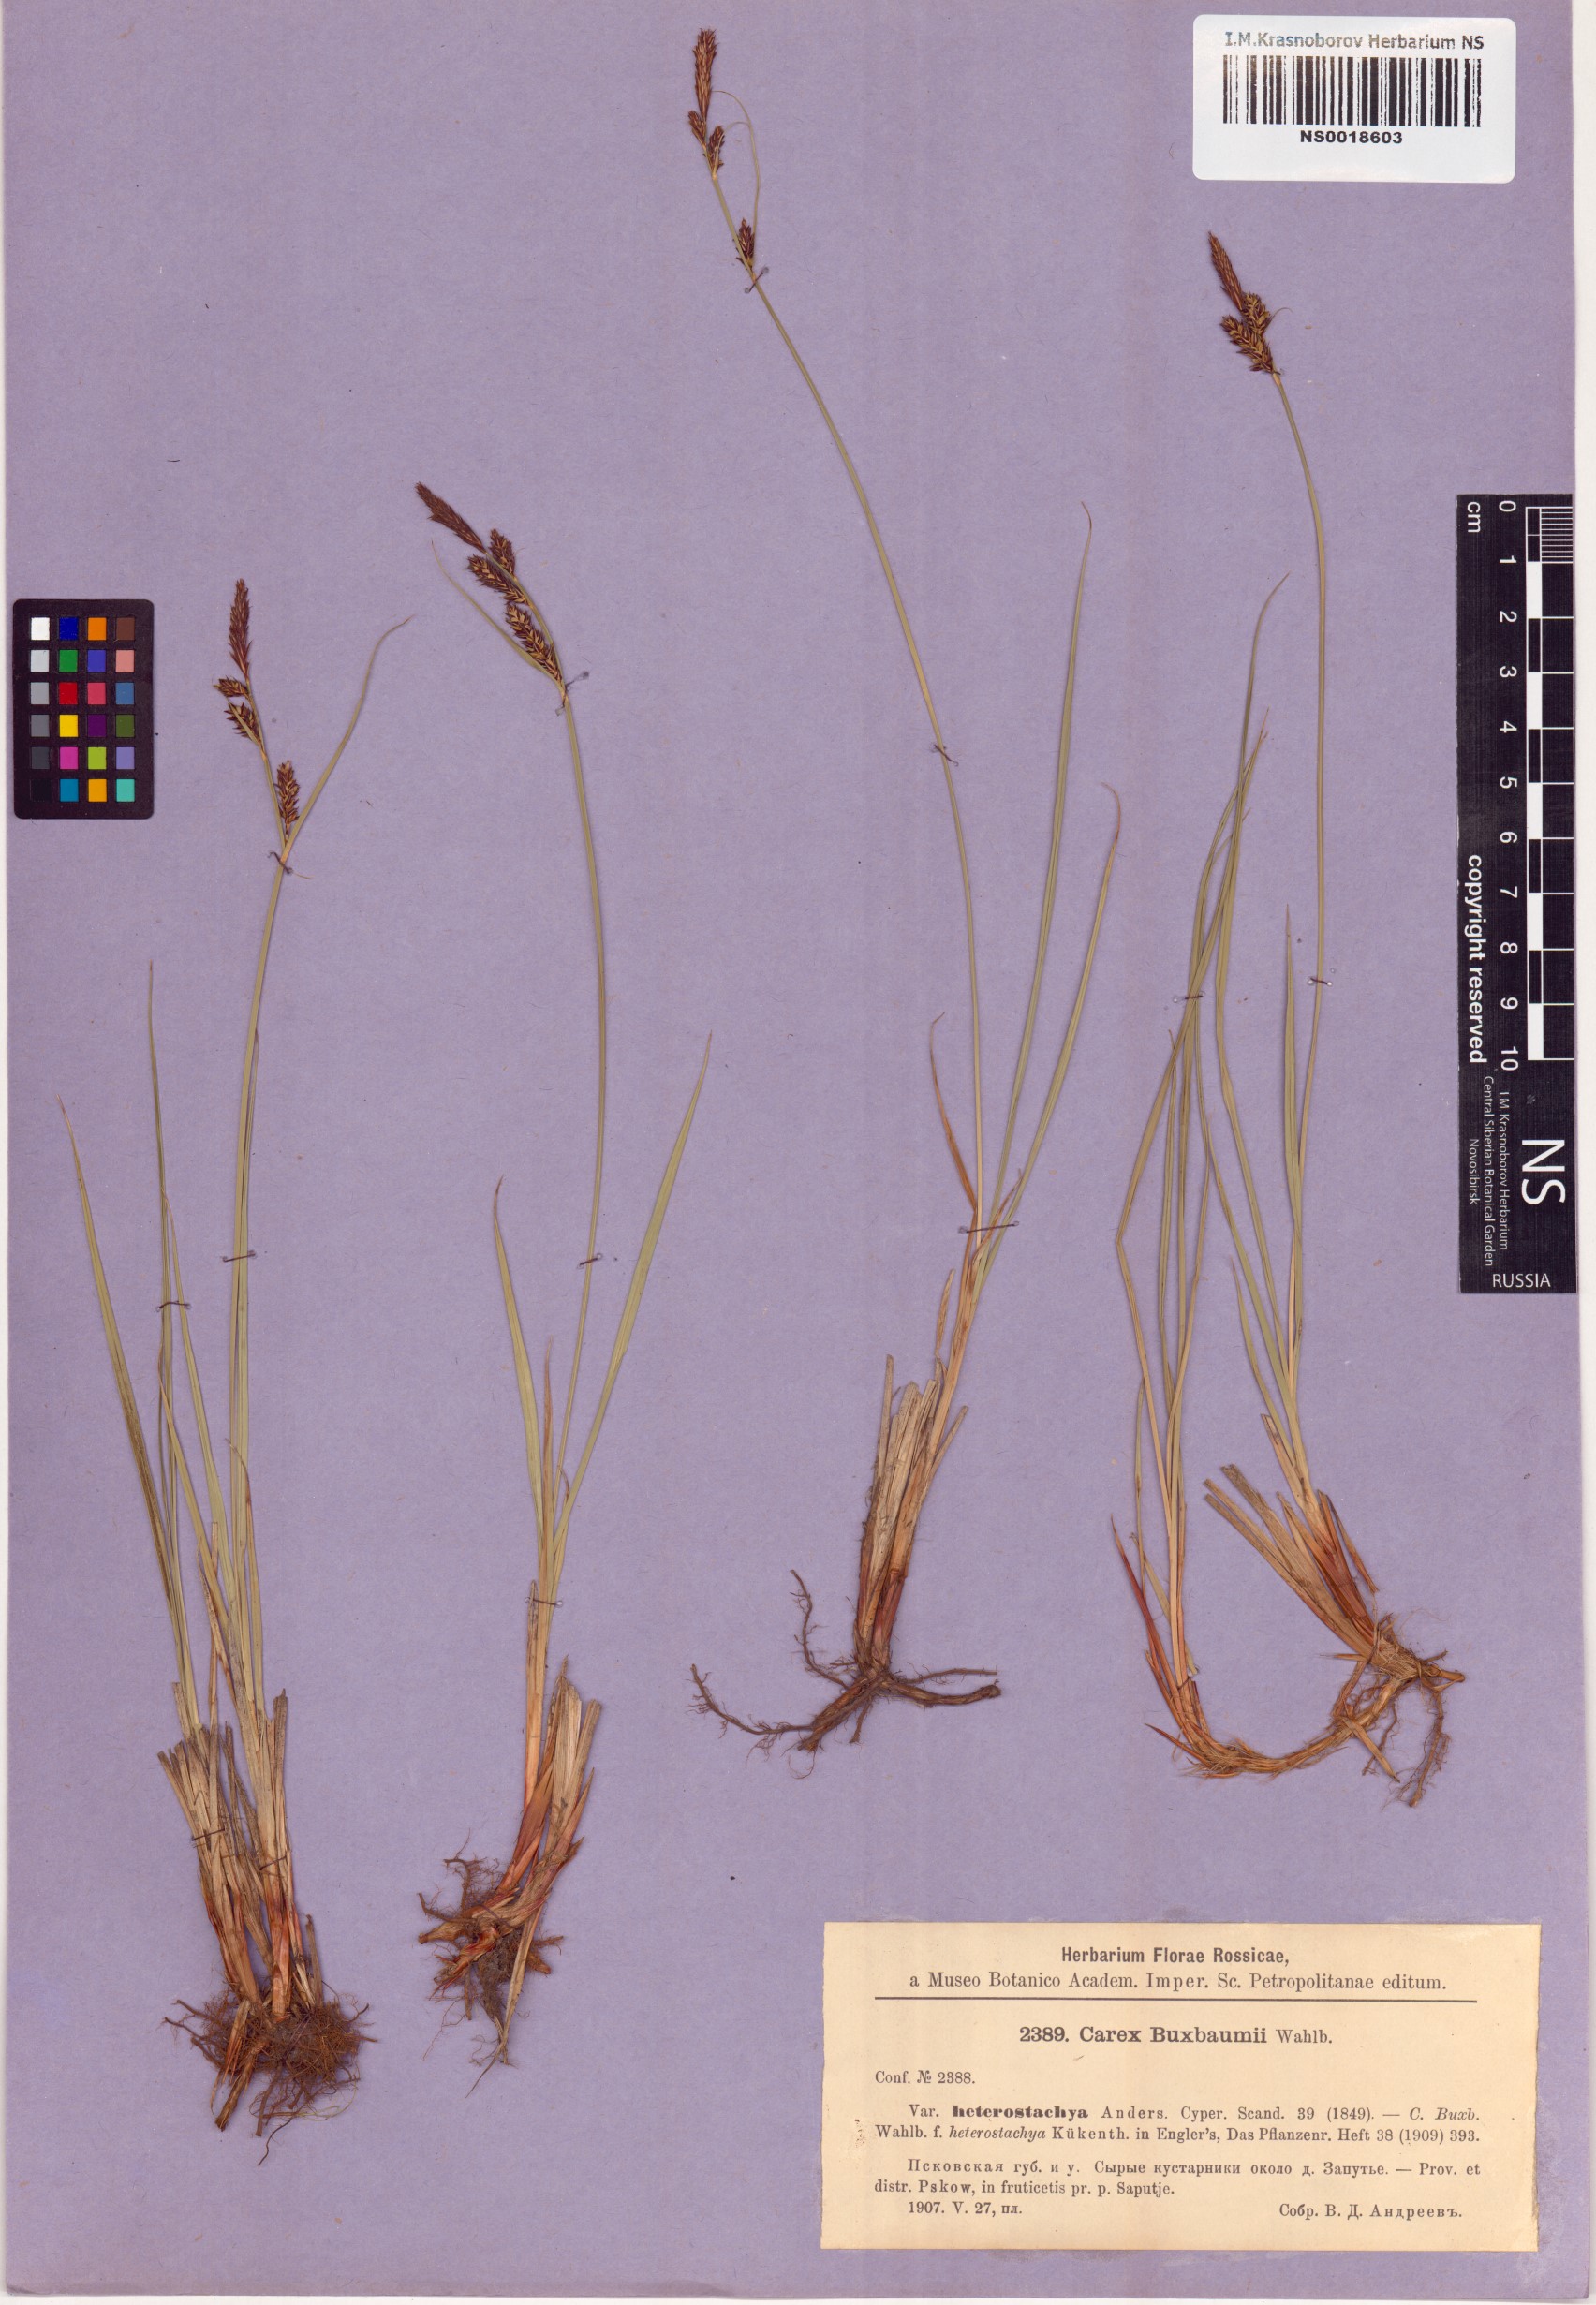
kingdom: Plantae
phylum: Tracheophyta
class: Liliopsida
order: Poales
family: Cyperaceae
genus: Carex
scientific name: Carex buxbaumii
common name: Club sedge
